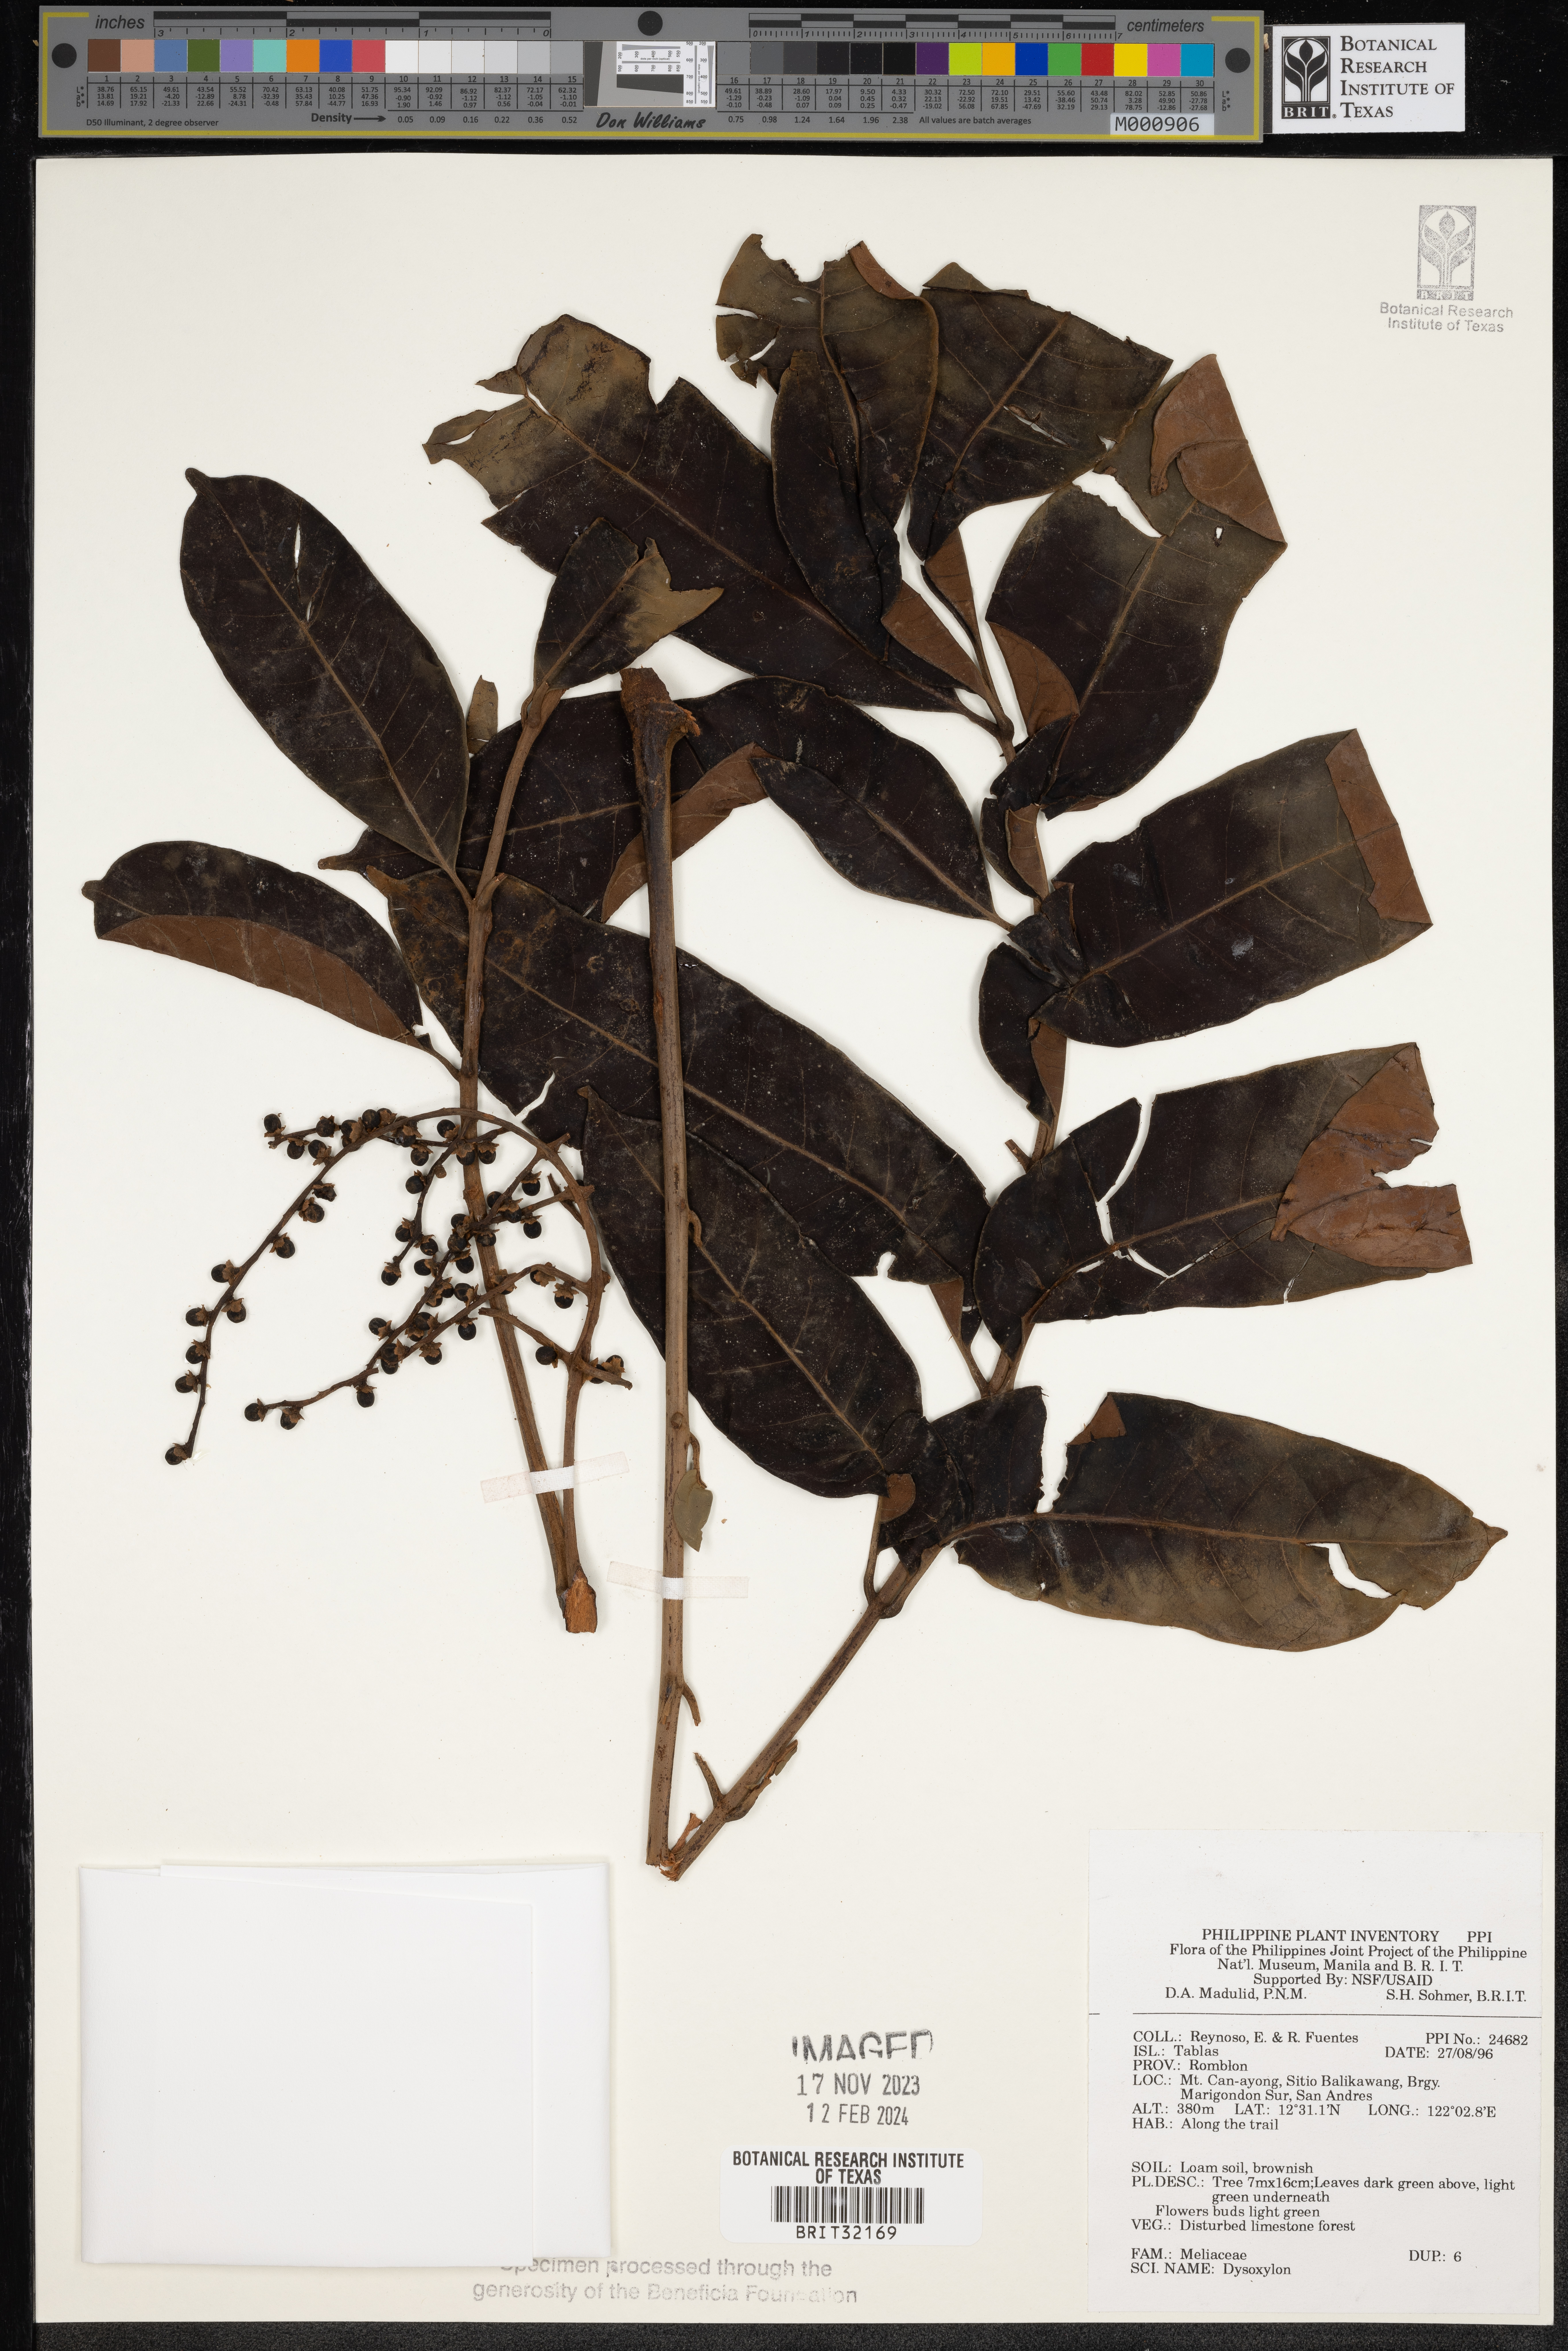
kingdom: Plantae
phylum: Tracheophyta
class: Magnoliopsida
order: Sapindales
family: Meliaceae
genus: Dysoxylum
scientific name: Dysoxylum
